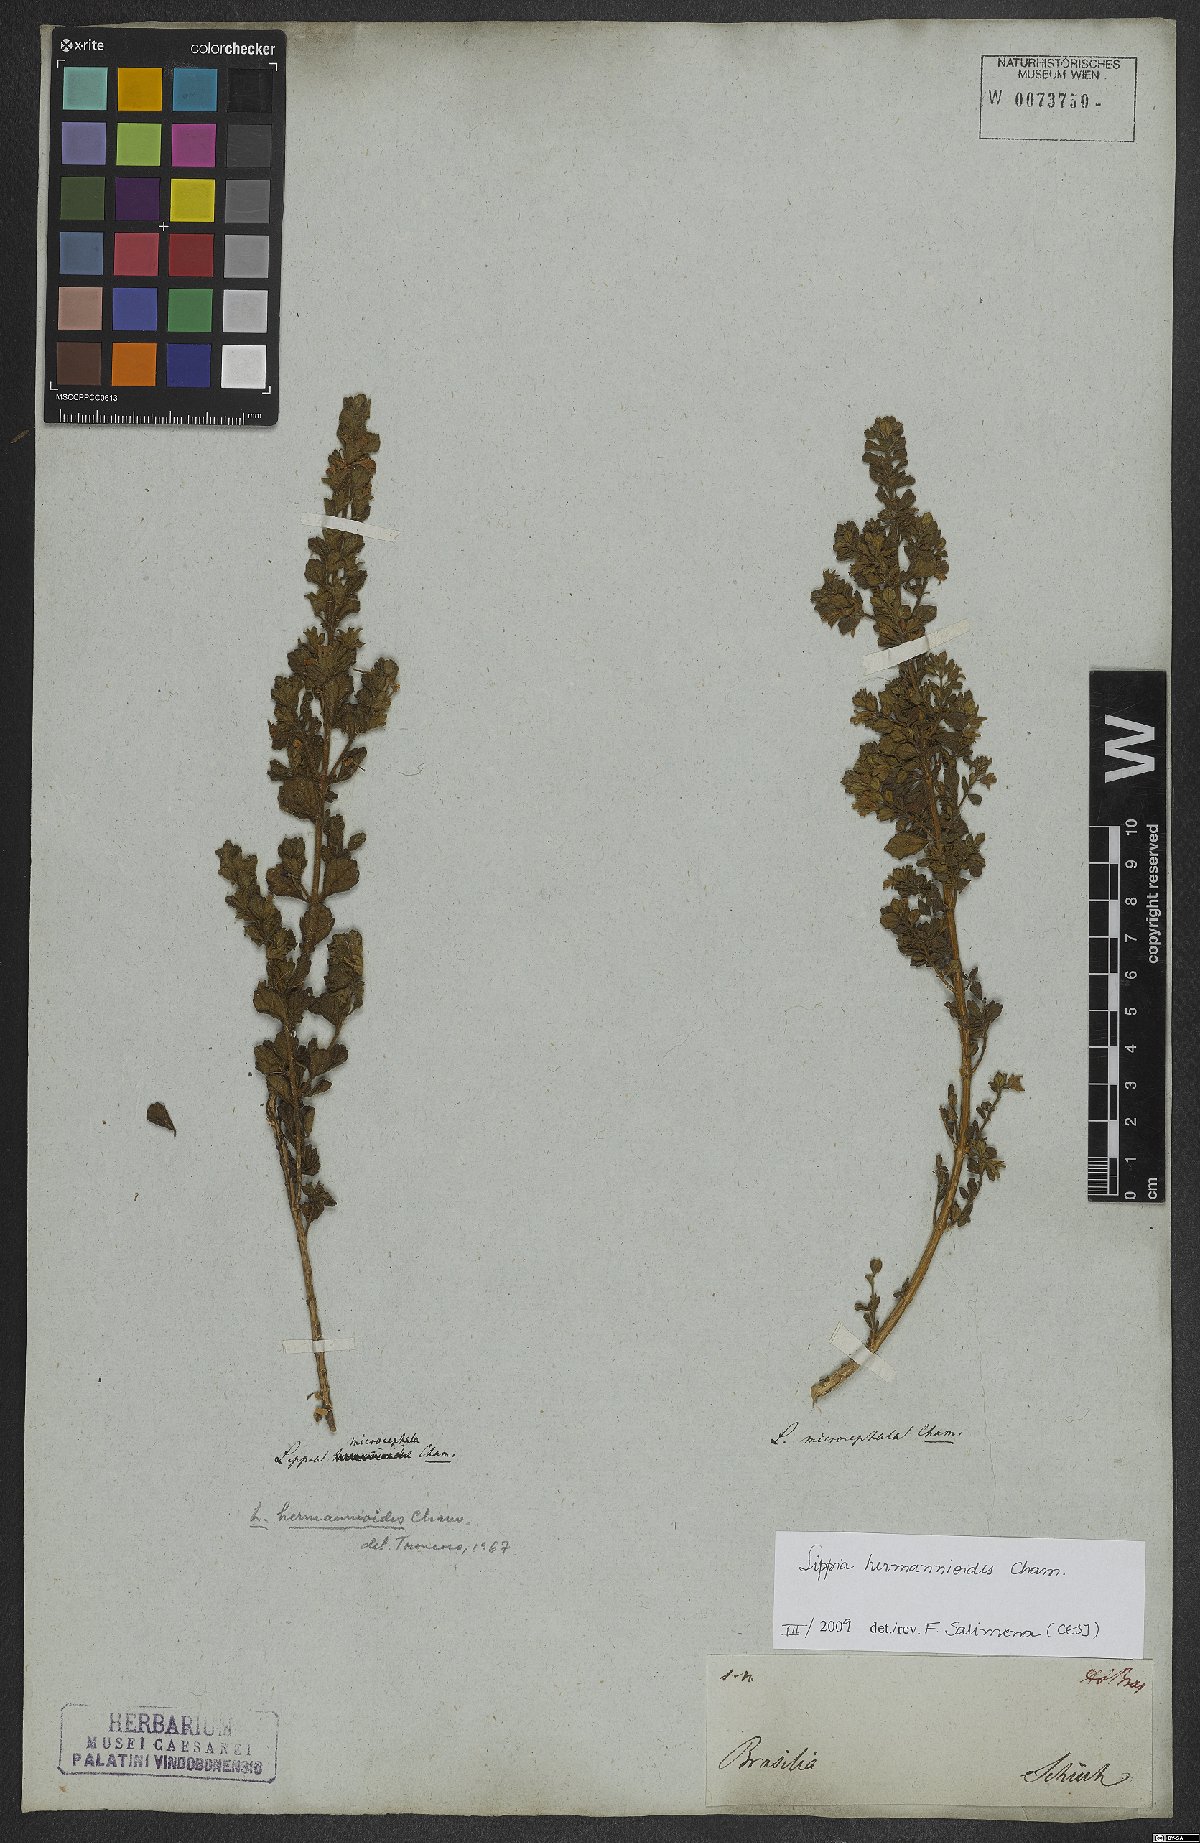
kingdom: Plantae
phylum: Tracheophyta
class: Magnoliopsida
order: Lamiales
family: Verbenaceae
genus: Lippia
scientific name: Lippia hermannioides
